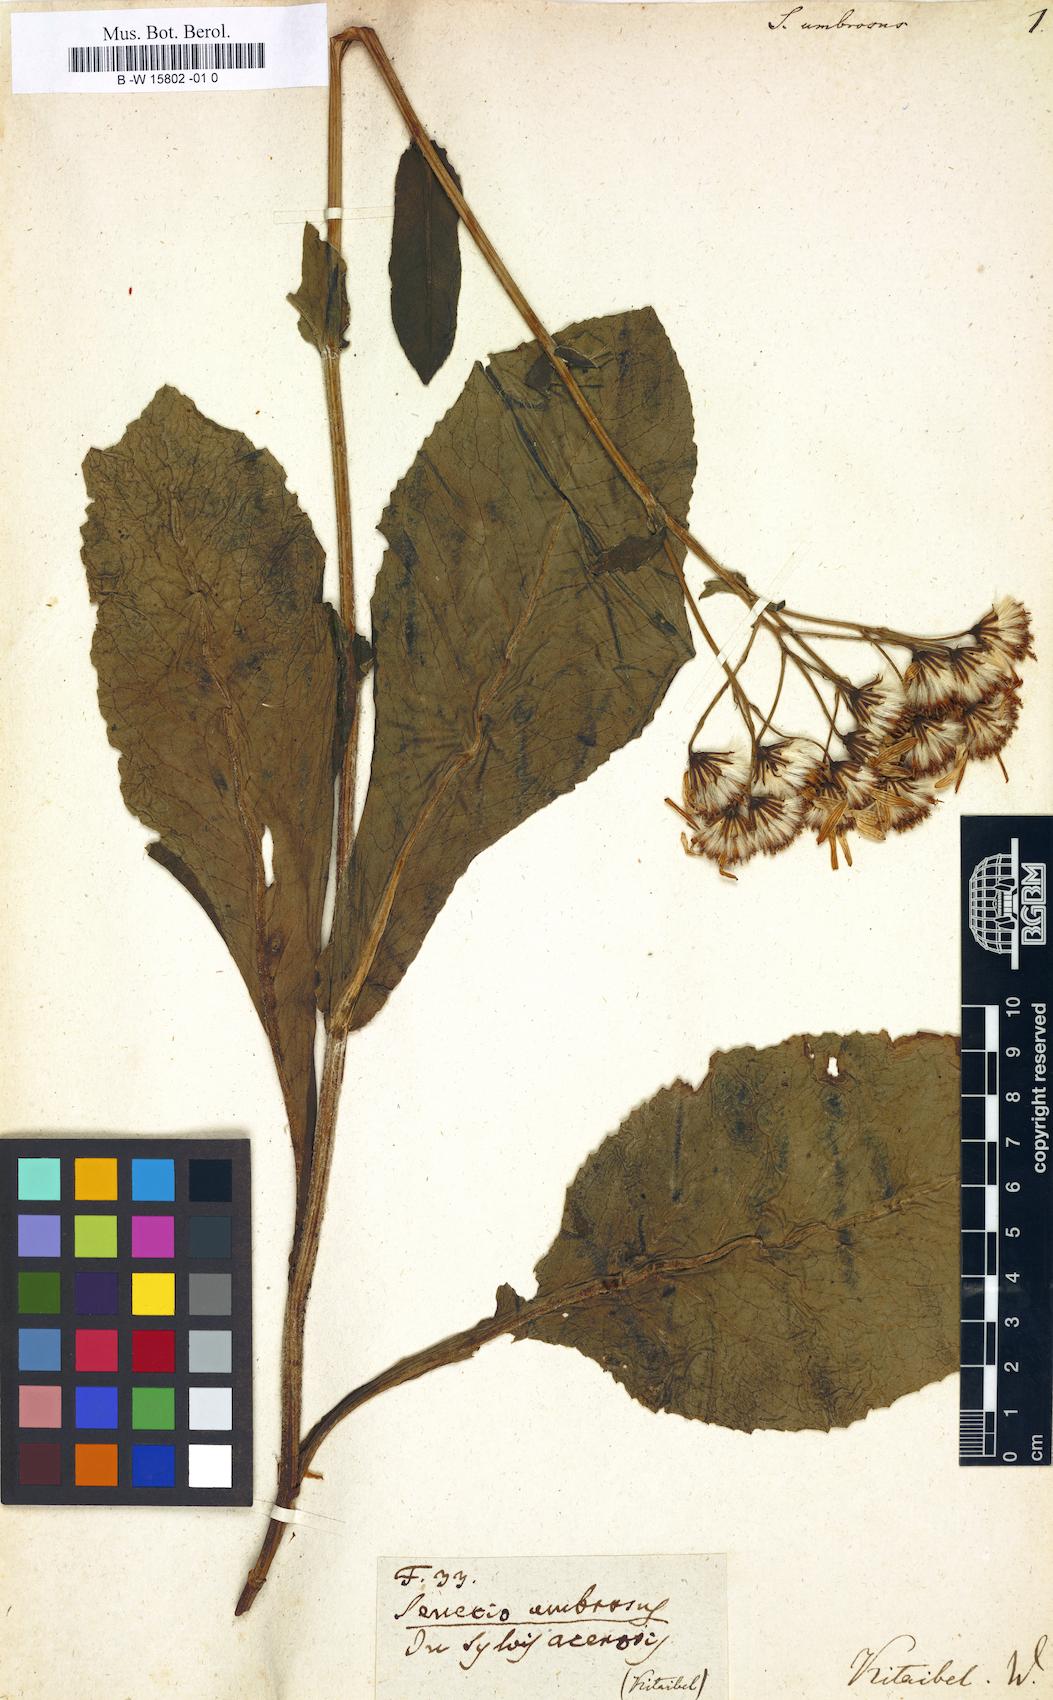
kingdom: Plantae
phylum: Tracheophyta
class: Magnoliopsida
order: Asterales
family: Asteraceae
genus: Senecio
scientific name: Senecio umbrosus
